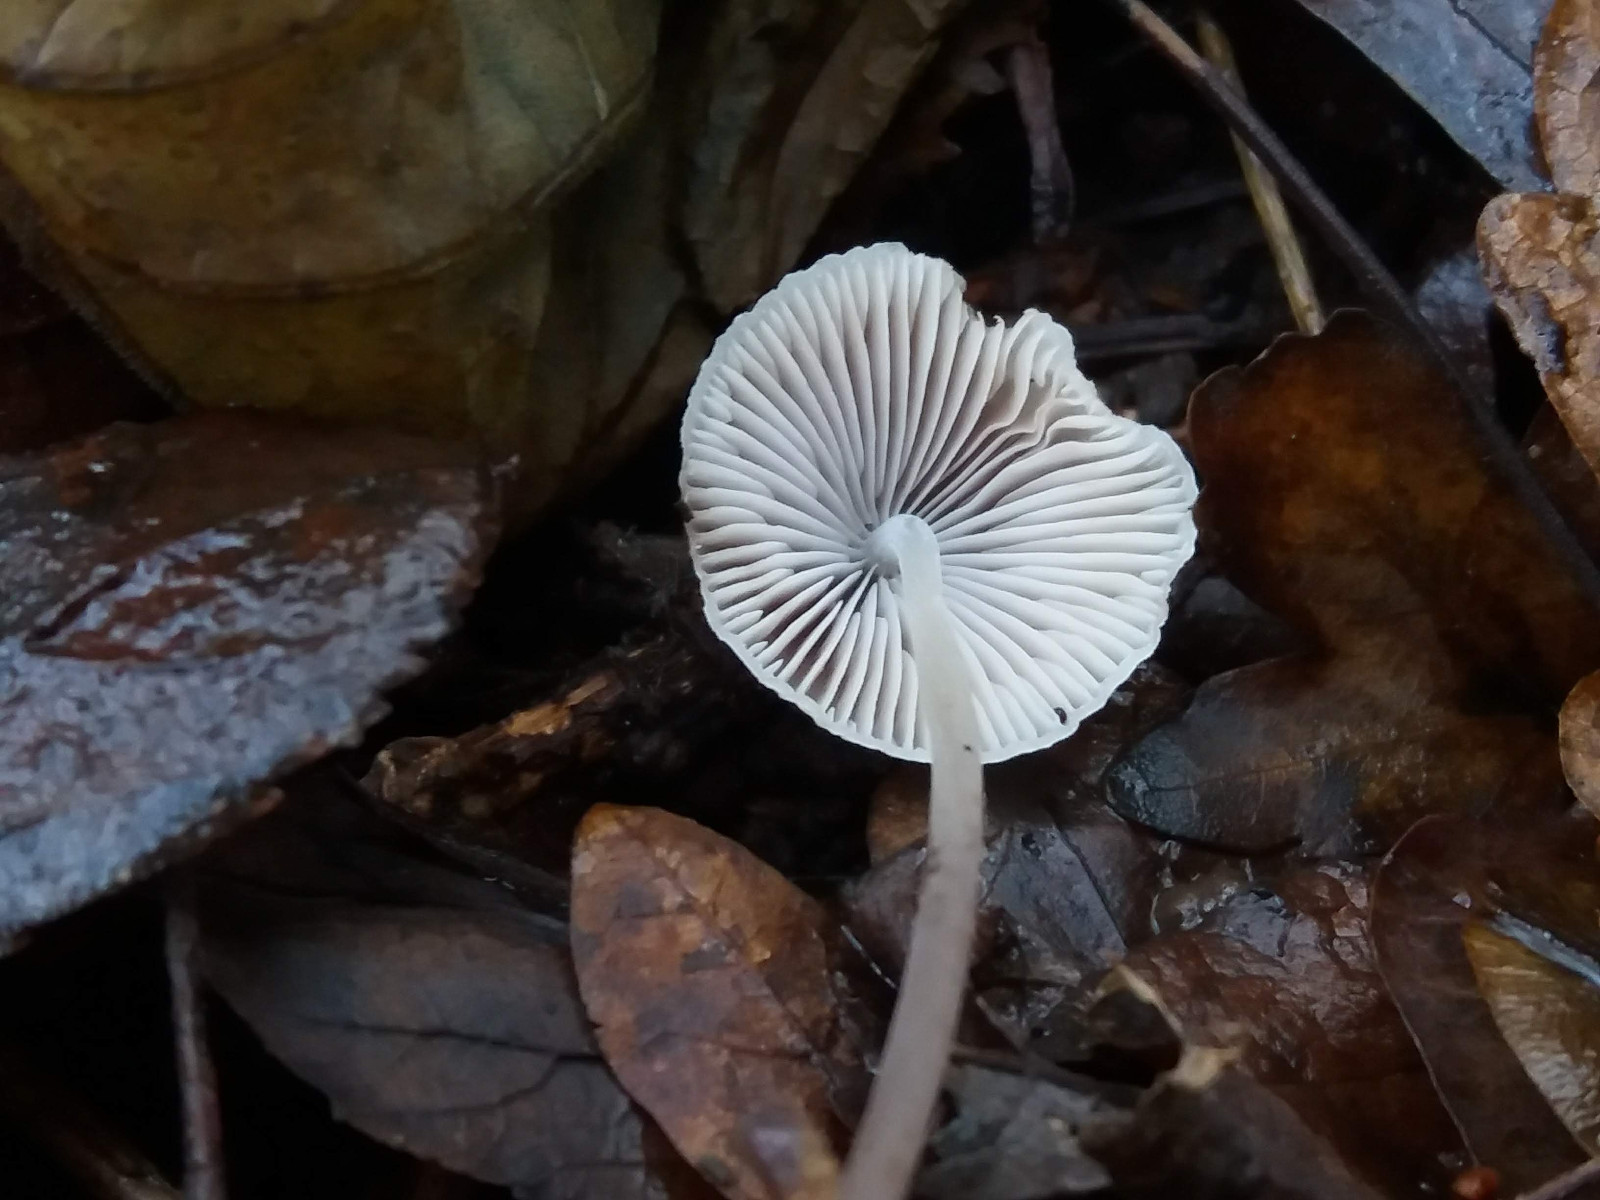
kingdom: Fungi
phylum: Basidiomycota
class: Agaricomycetes
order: Agaricales
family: Mycenaceae
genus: Mycena
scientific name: Mycena filopes
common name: jod-huesvamp
